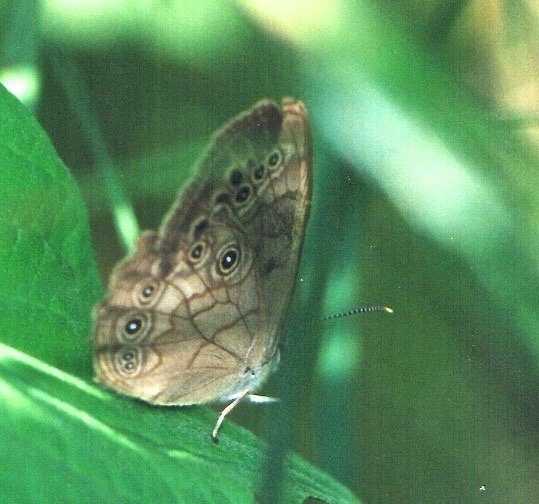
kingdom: Animalia
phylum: Arthropoda
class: Insecta
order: Lepidoptera
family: Nymphalidae
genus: Lethe
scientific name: Lethe eurydice
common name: Eyed Brown
